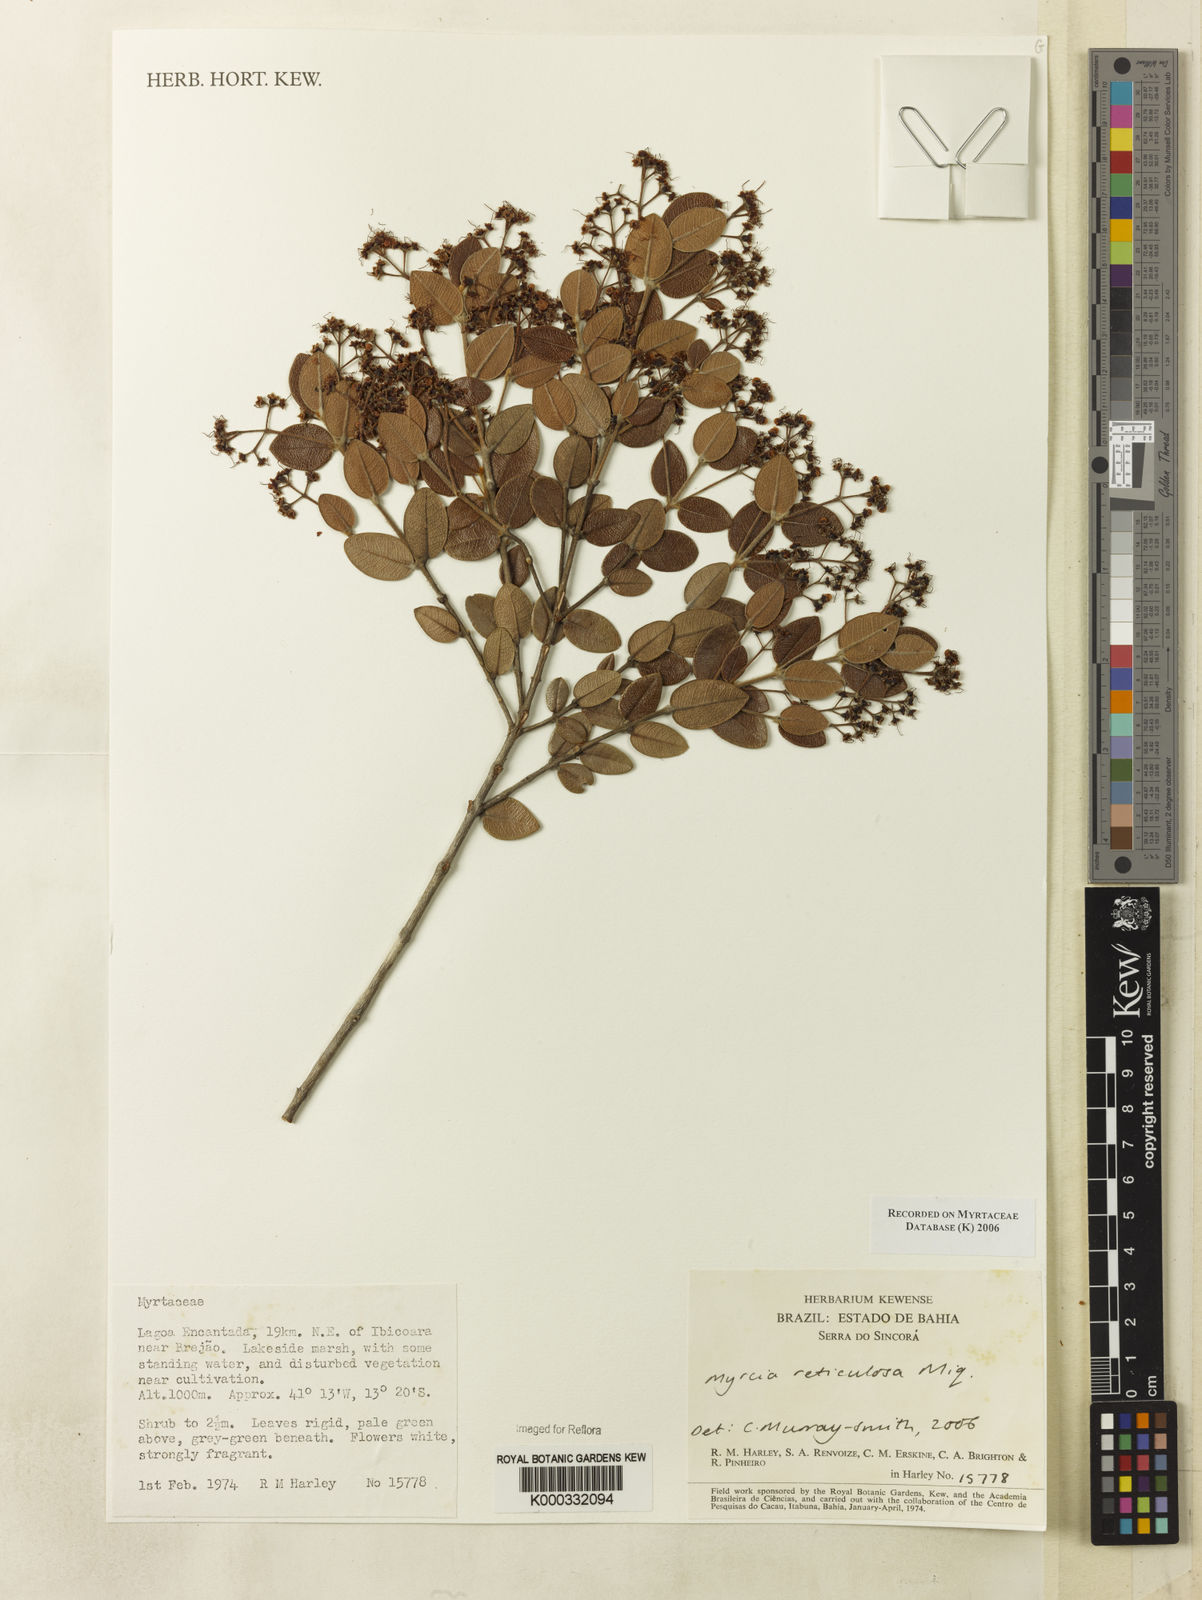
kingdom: Plantae
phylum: Tracheophyta
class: Magnoliopsida
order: Myrtales
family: Myrtaceae
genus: Myrcia
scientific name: Myrcia reticulosa
